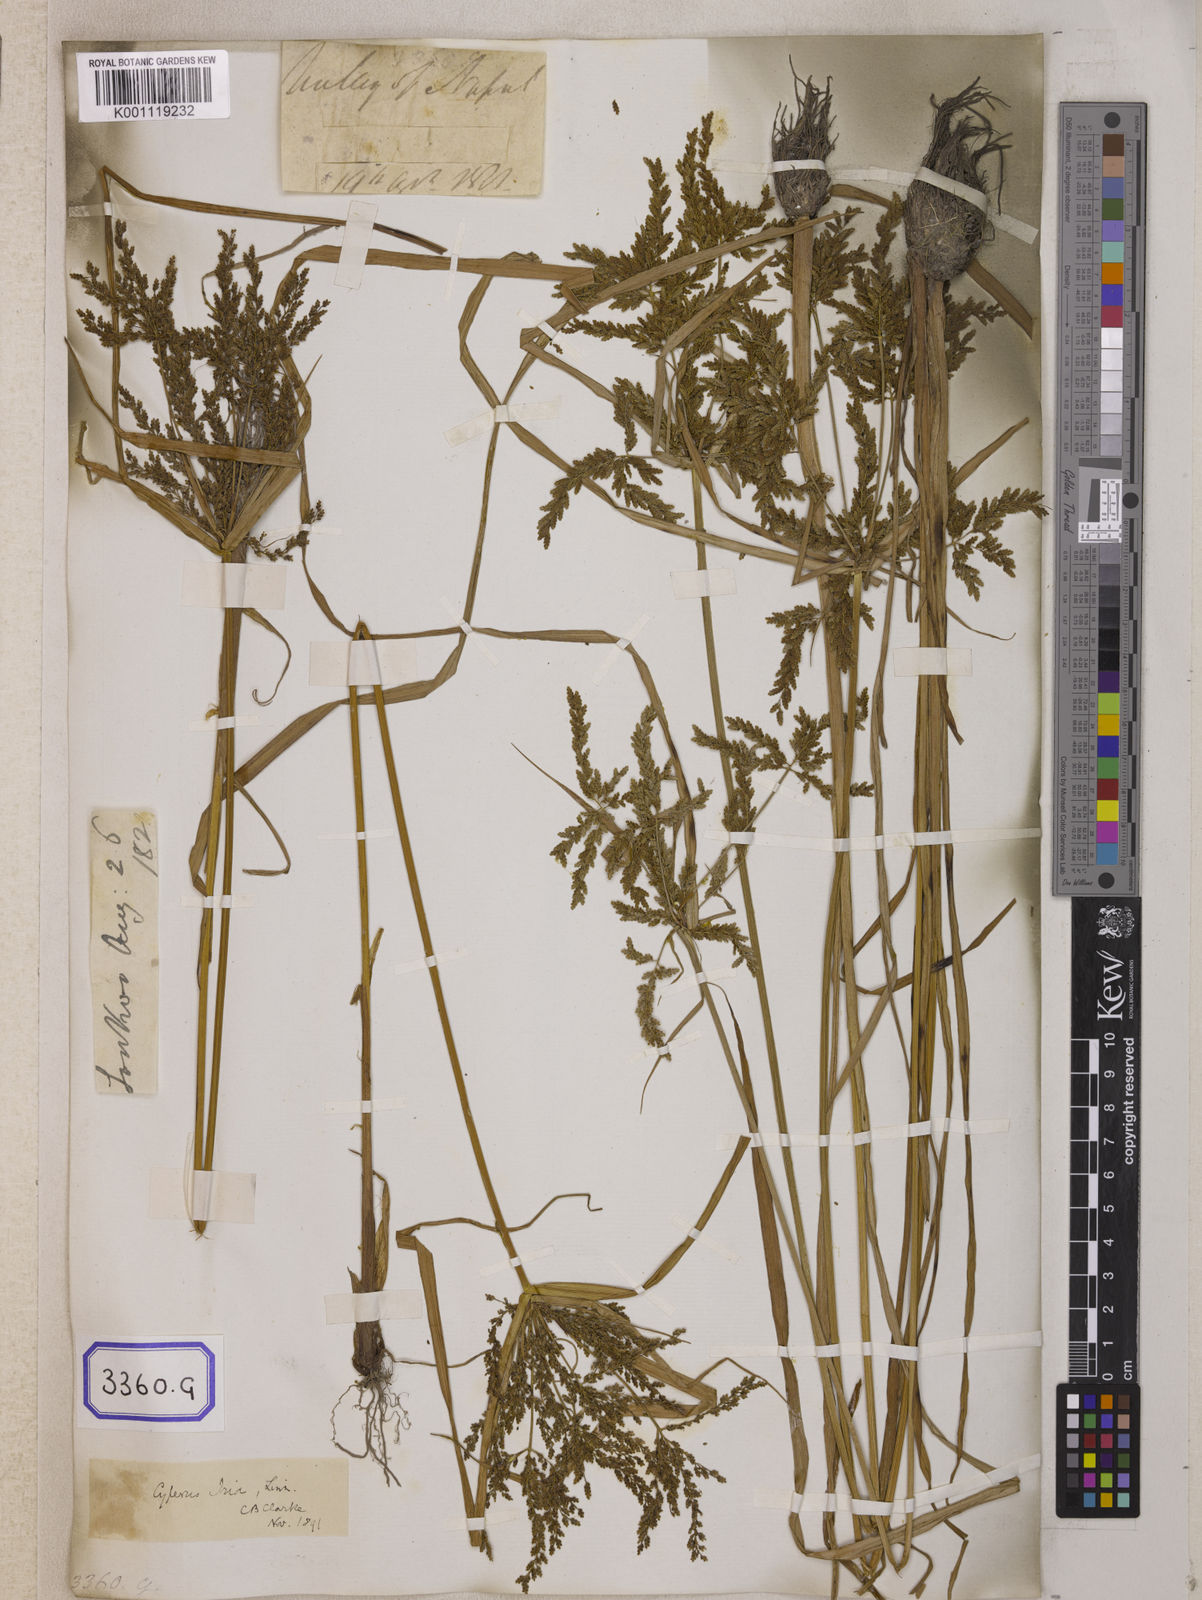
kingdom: Plantae
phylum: Tracheophyta
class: Liliopsida
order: Poales
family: Cyperaceae
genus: Cyperus
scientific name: Cyperus
